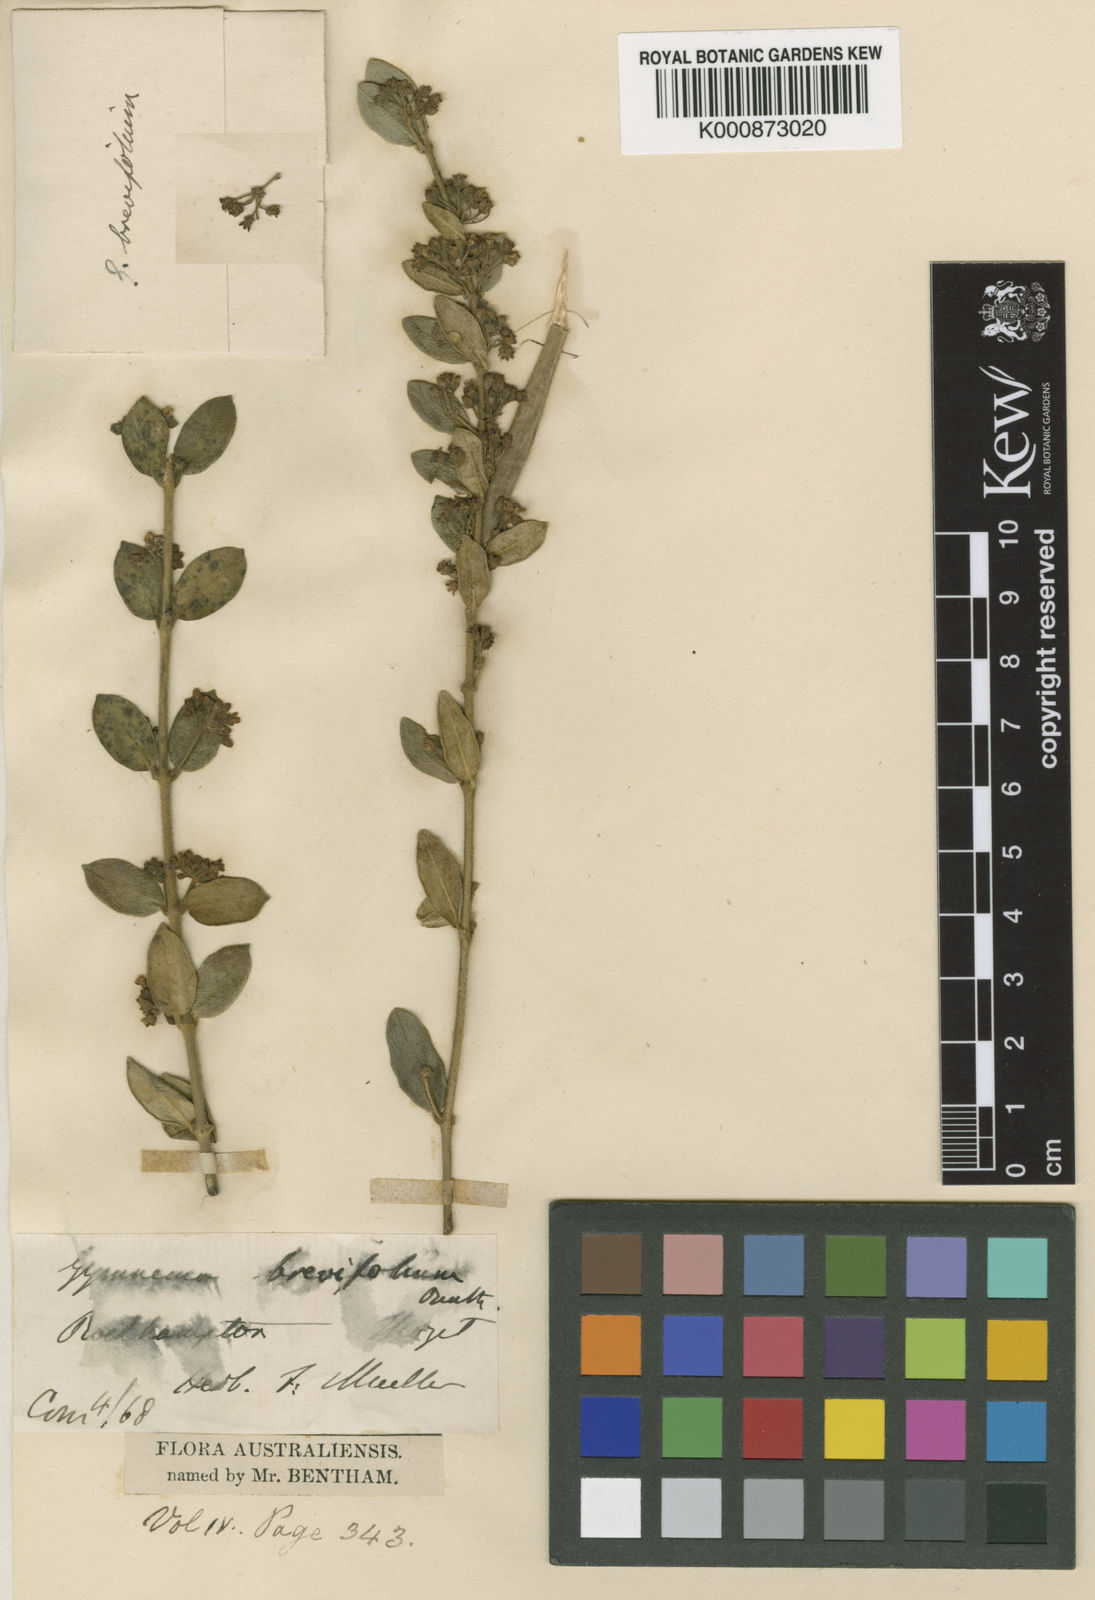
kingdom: Plantae
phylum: Tracheophyta
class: Magnoliopsida
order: Gentianales
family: Apocynaceae
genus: Leichhardtia
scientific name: Leichhardtia brevifolia
